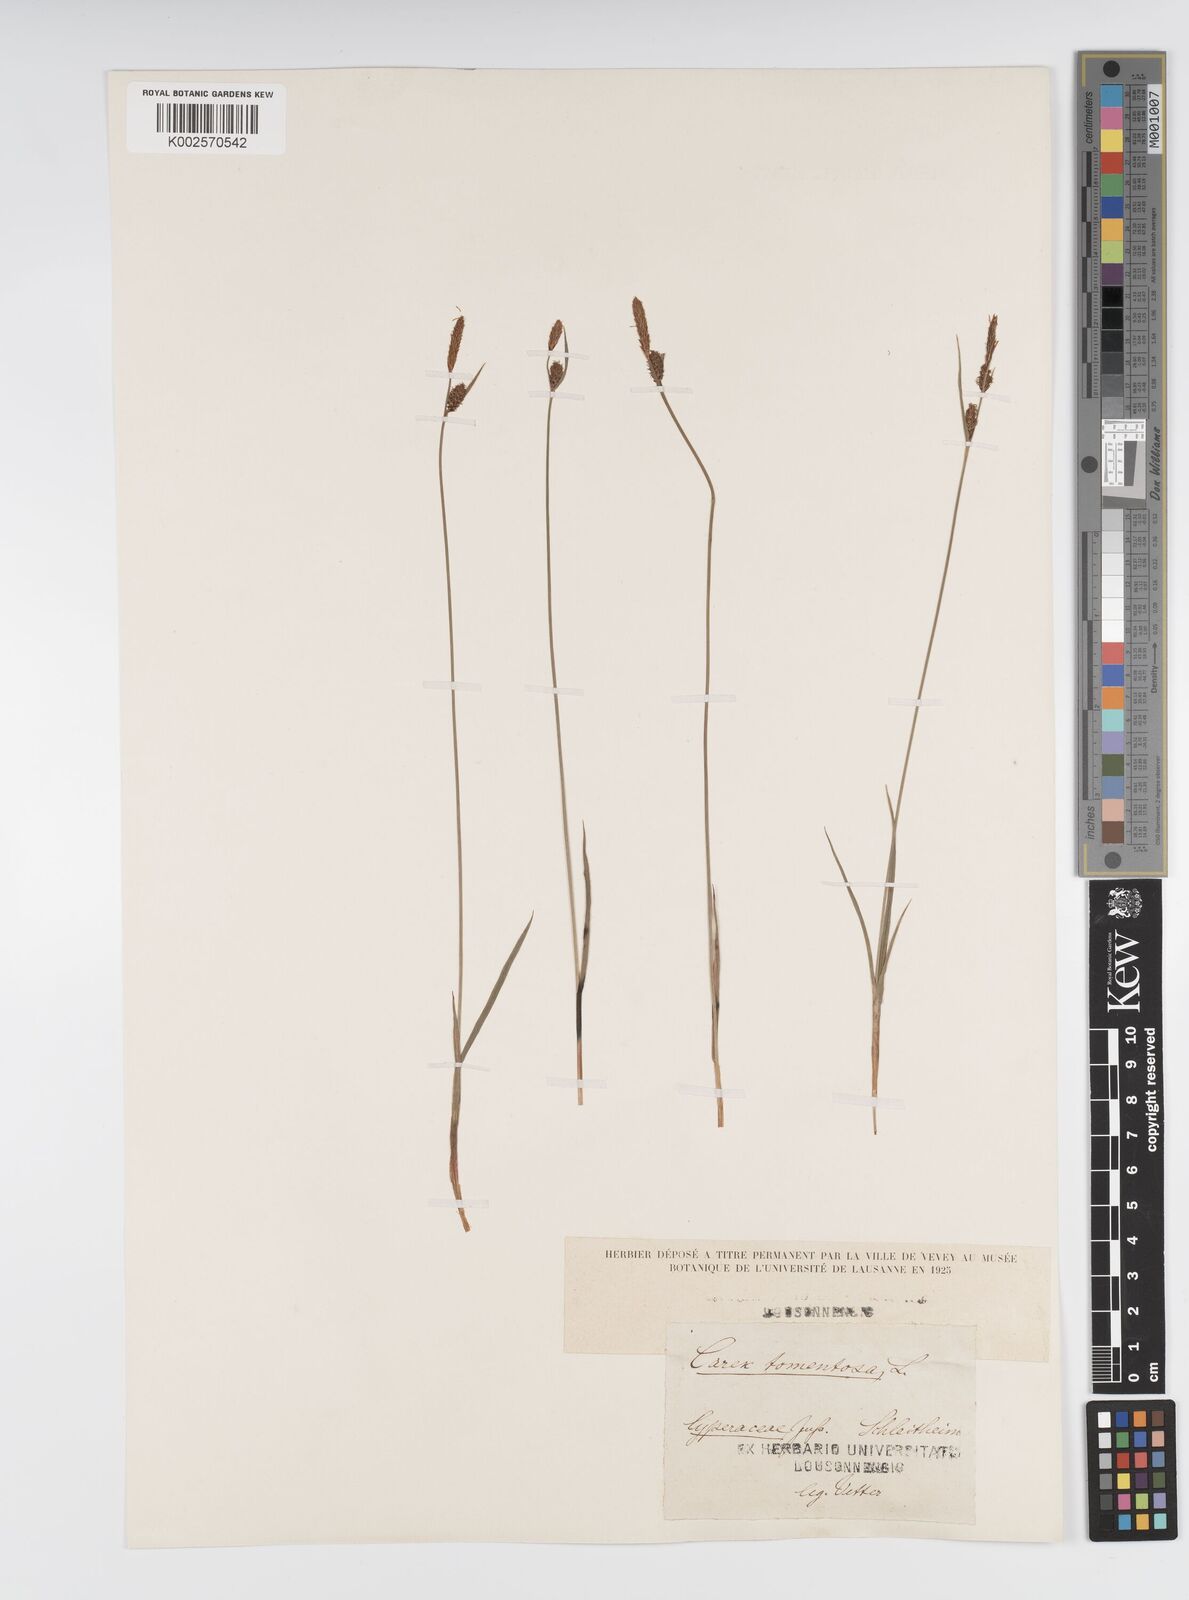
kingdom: Plantae
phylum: Tracheophyta
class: Liliopsida
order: Poales
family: Cyperaceae
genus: Carex
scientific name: Carex montana
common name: Soft-leaved sedge
